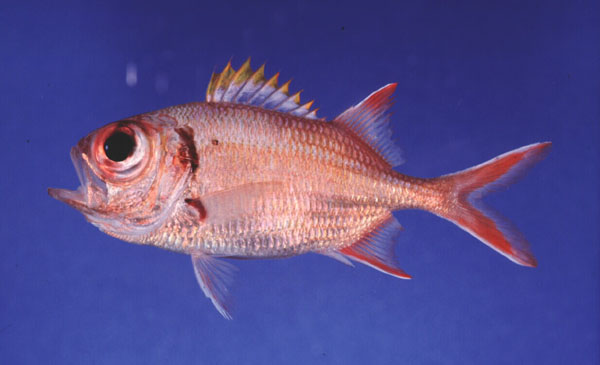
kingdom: Animalia
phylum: Chordata
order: Beryciformes
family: Holocentridae
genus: Myripristis
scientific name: Myripristis kuntee
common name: Epaulette soldierfish
